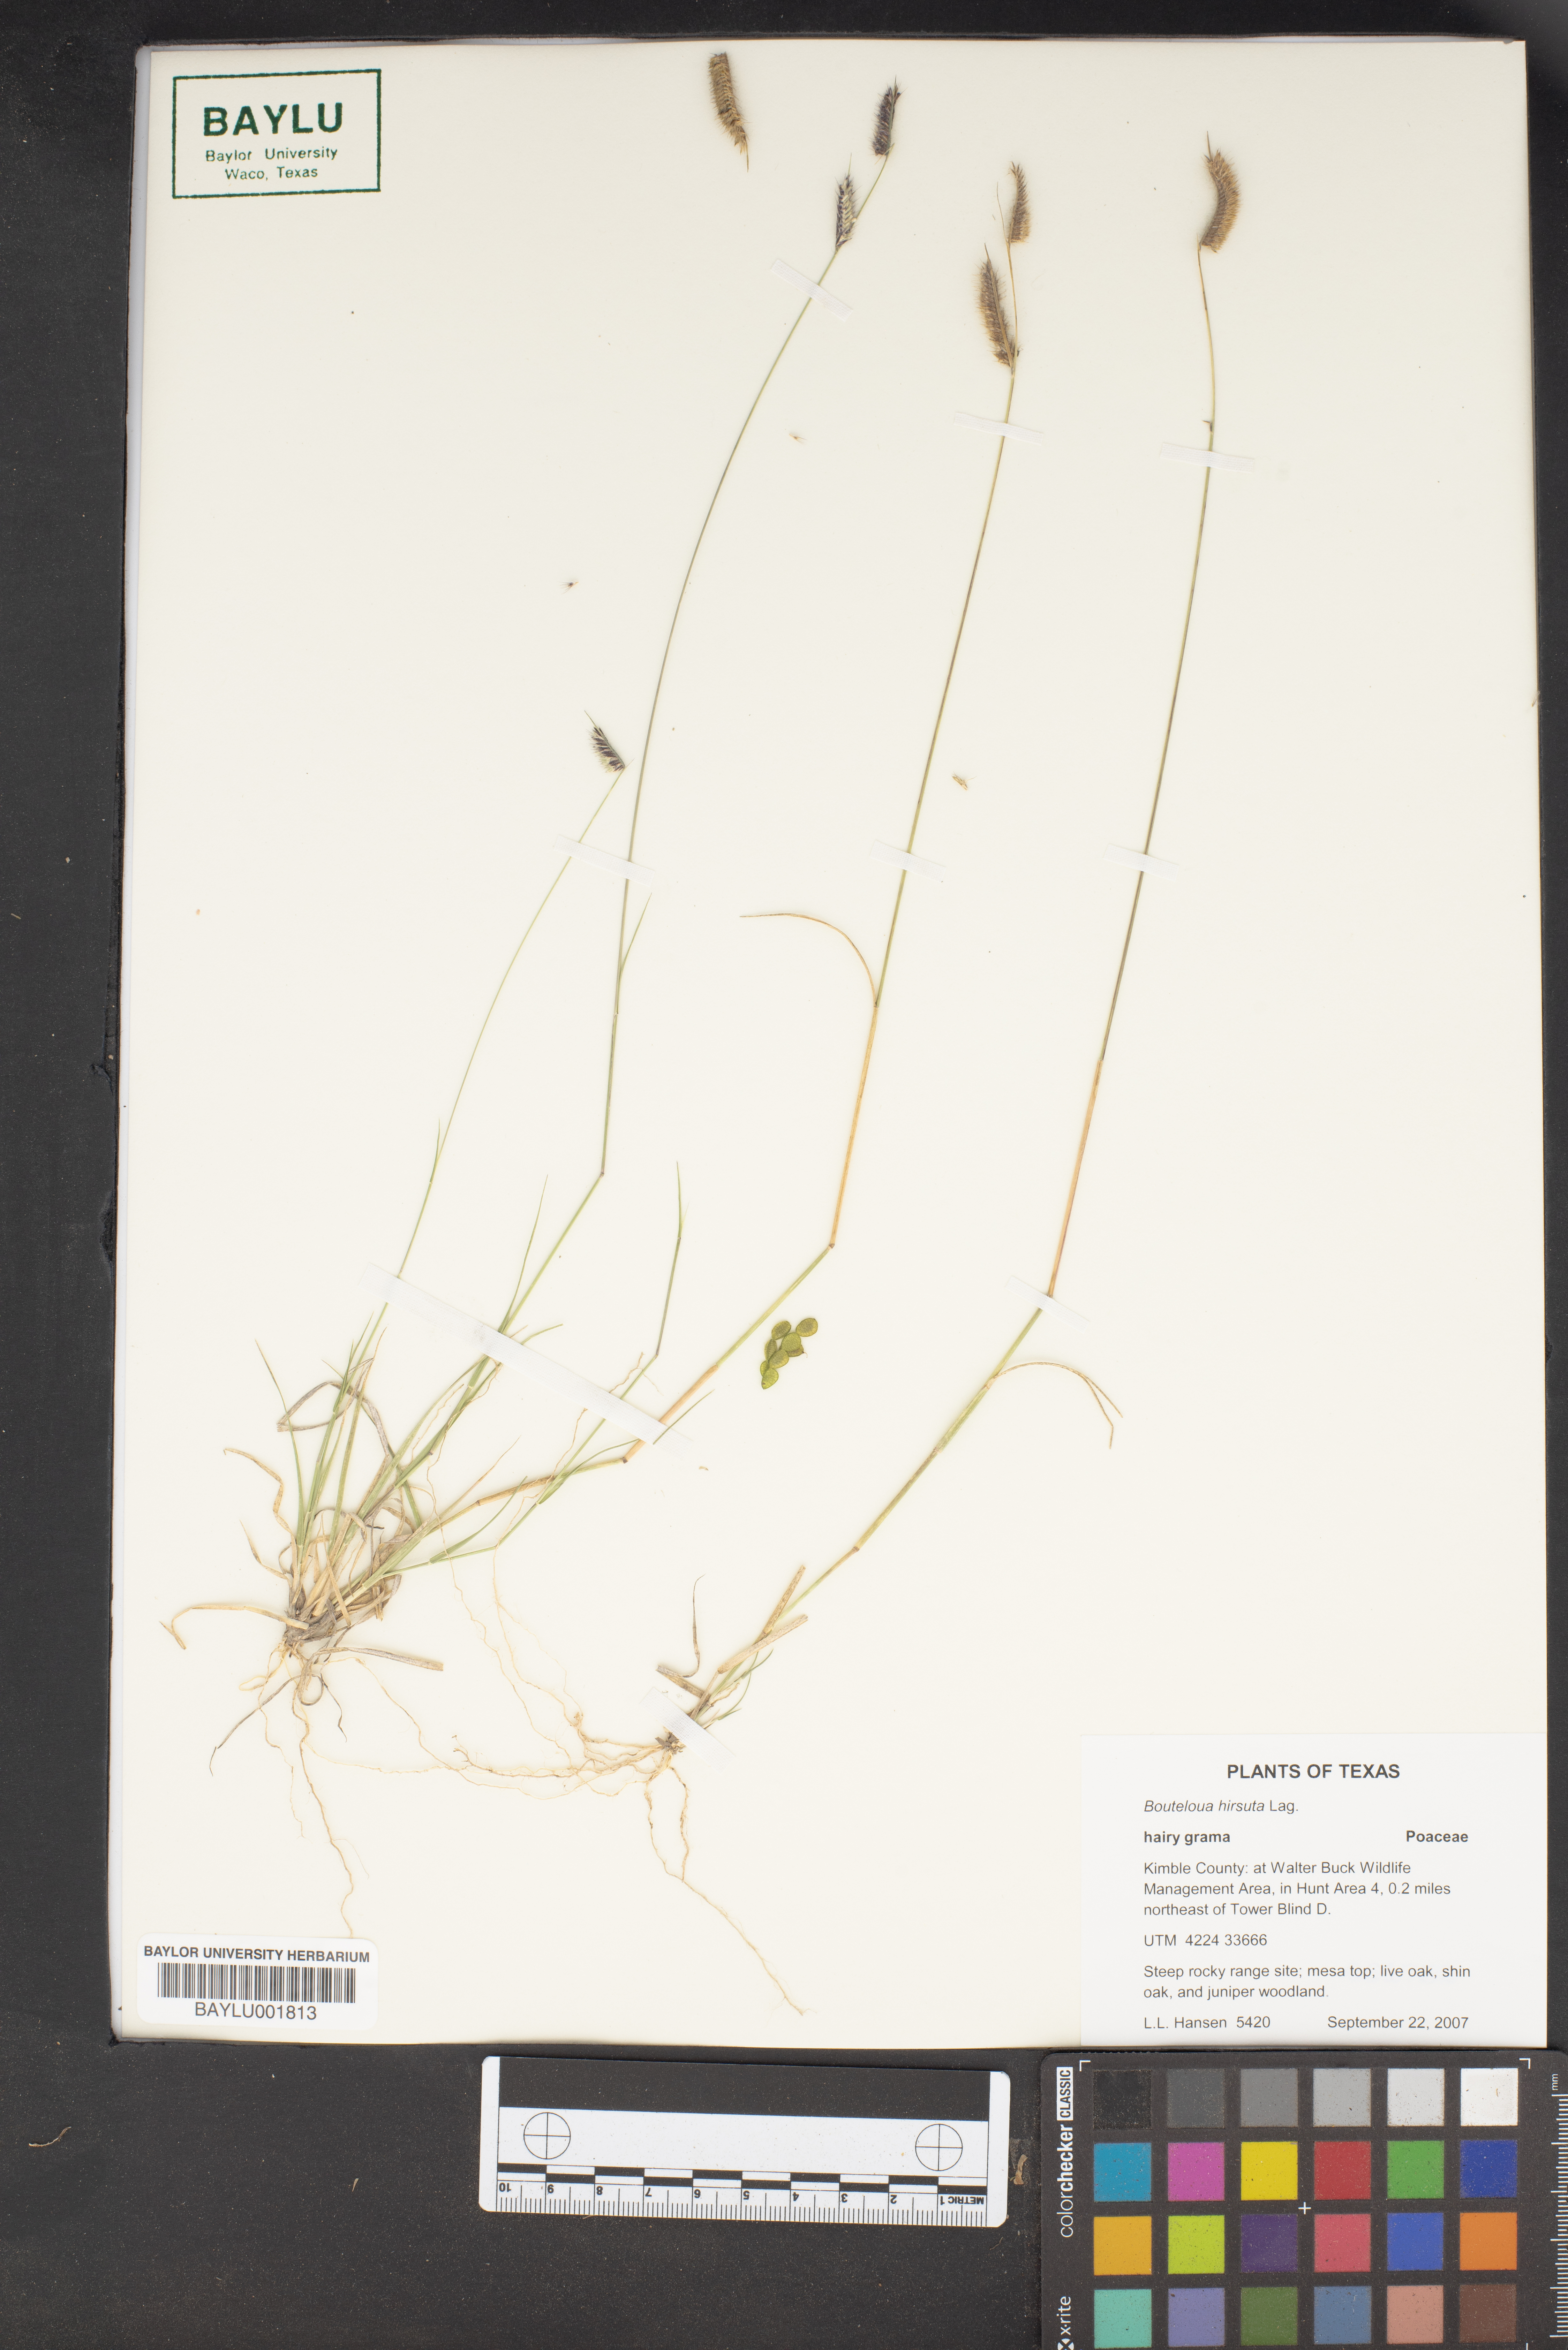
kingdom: Plantae
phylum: Tracheophyta
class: Liliopsida
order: Poales
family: Poaceae
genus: Bouteloua
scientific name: Bouteloua hirsuta
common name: Hairy grama
